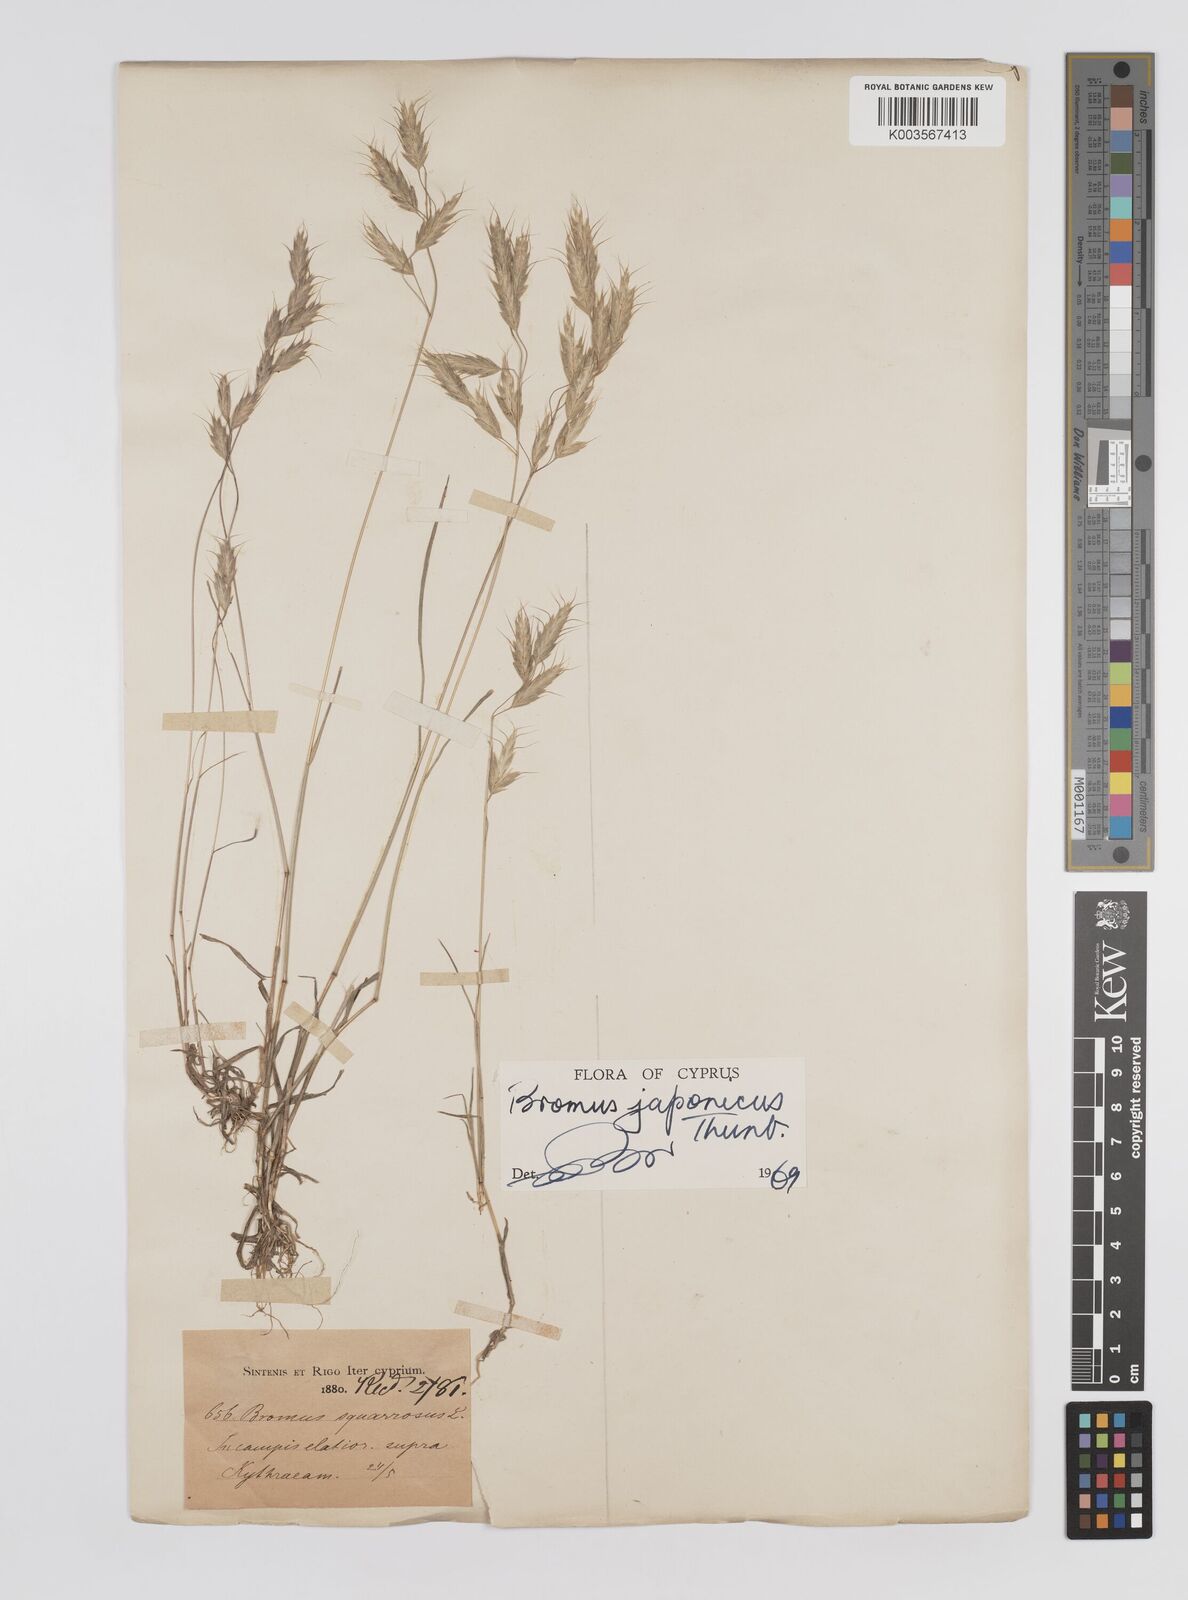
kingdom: Plantae
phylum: Tracheophyta
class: Liliopsida
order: Poales
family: Poaceae
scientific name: Poaceae
